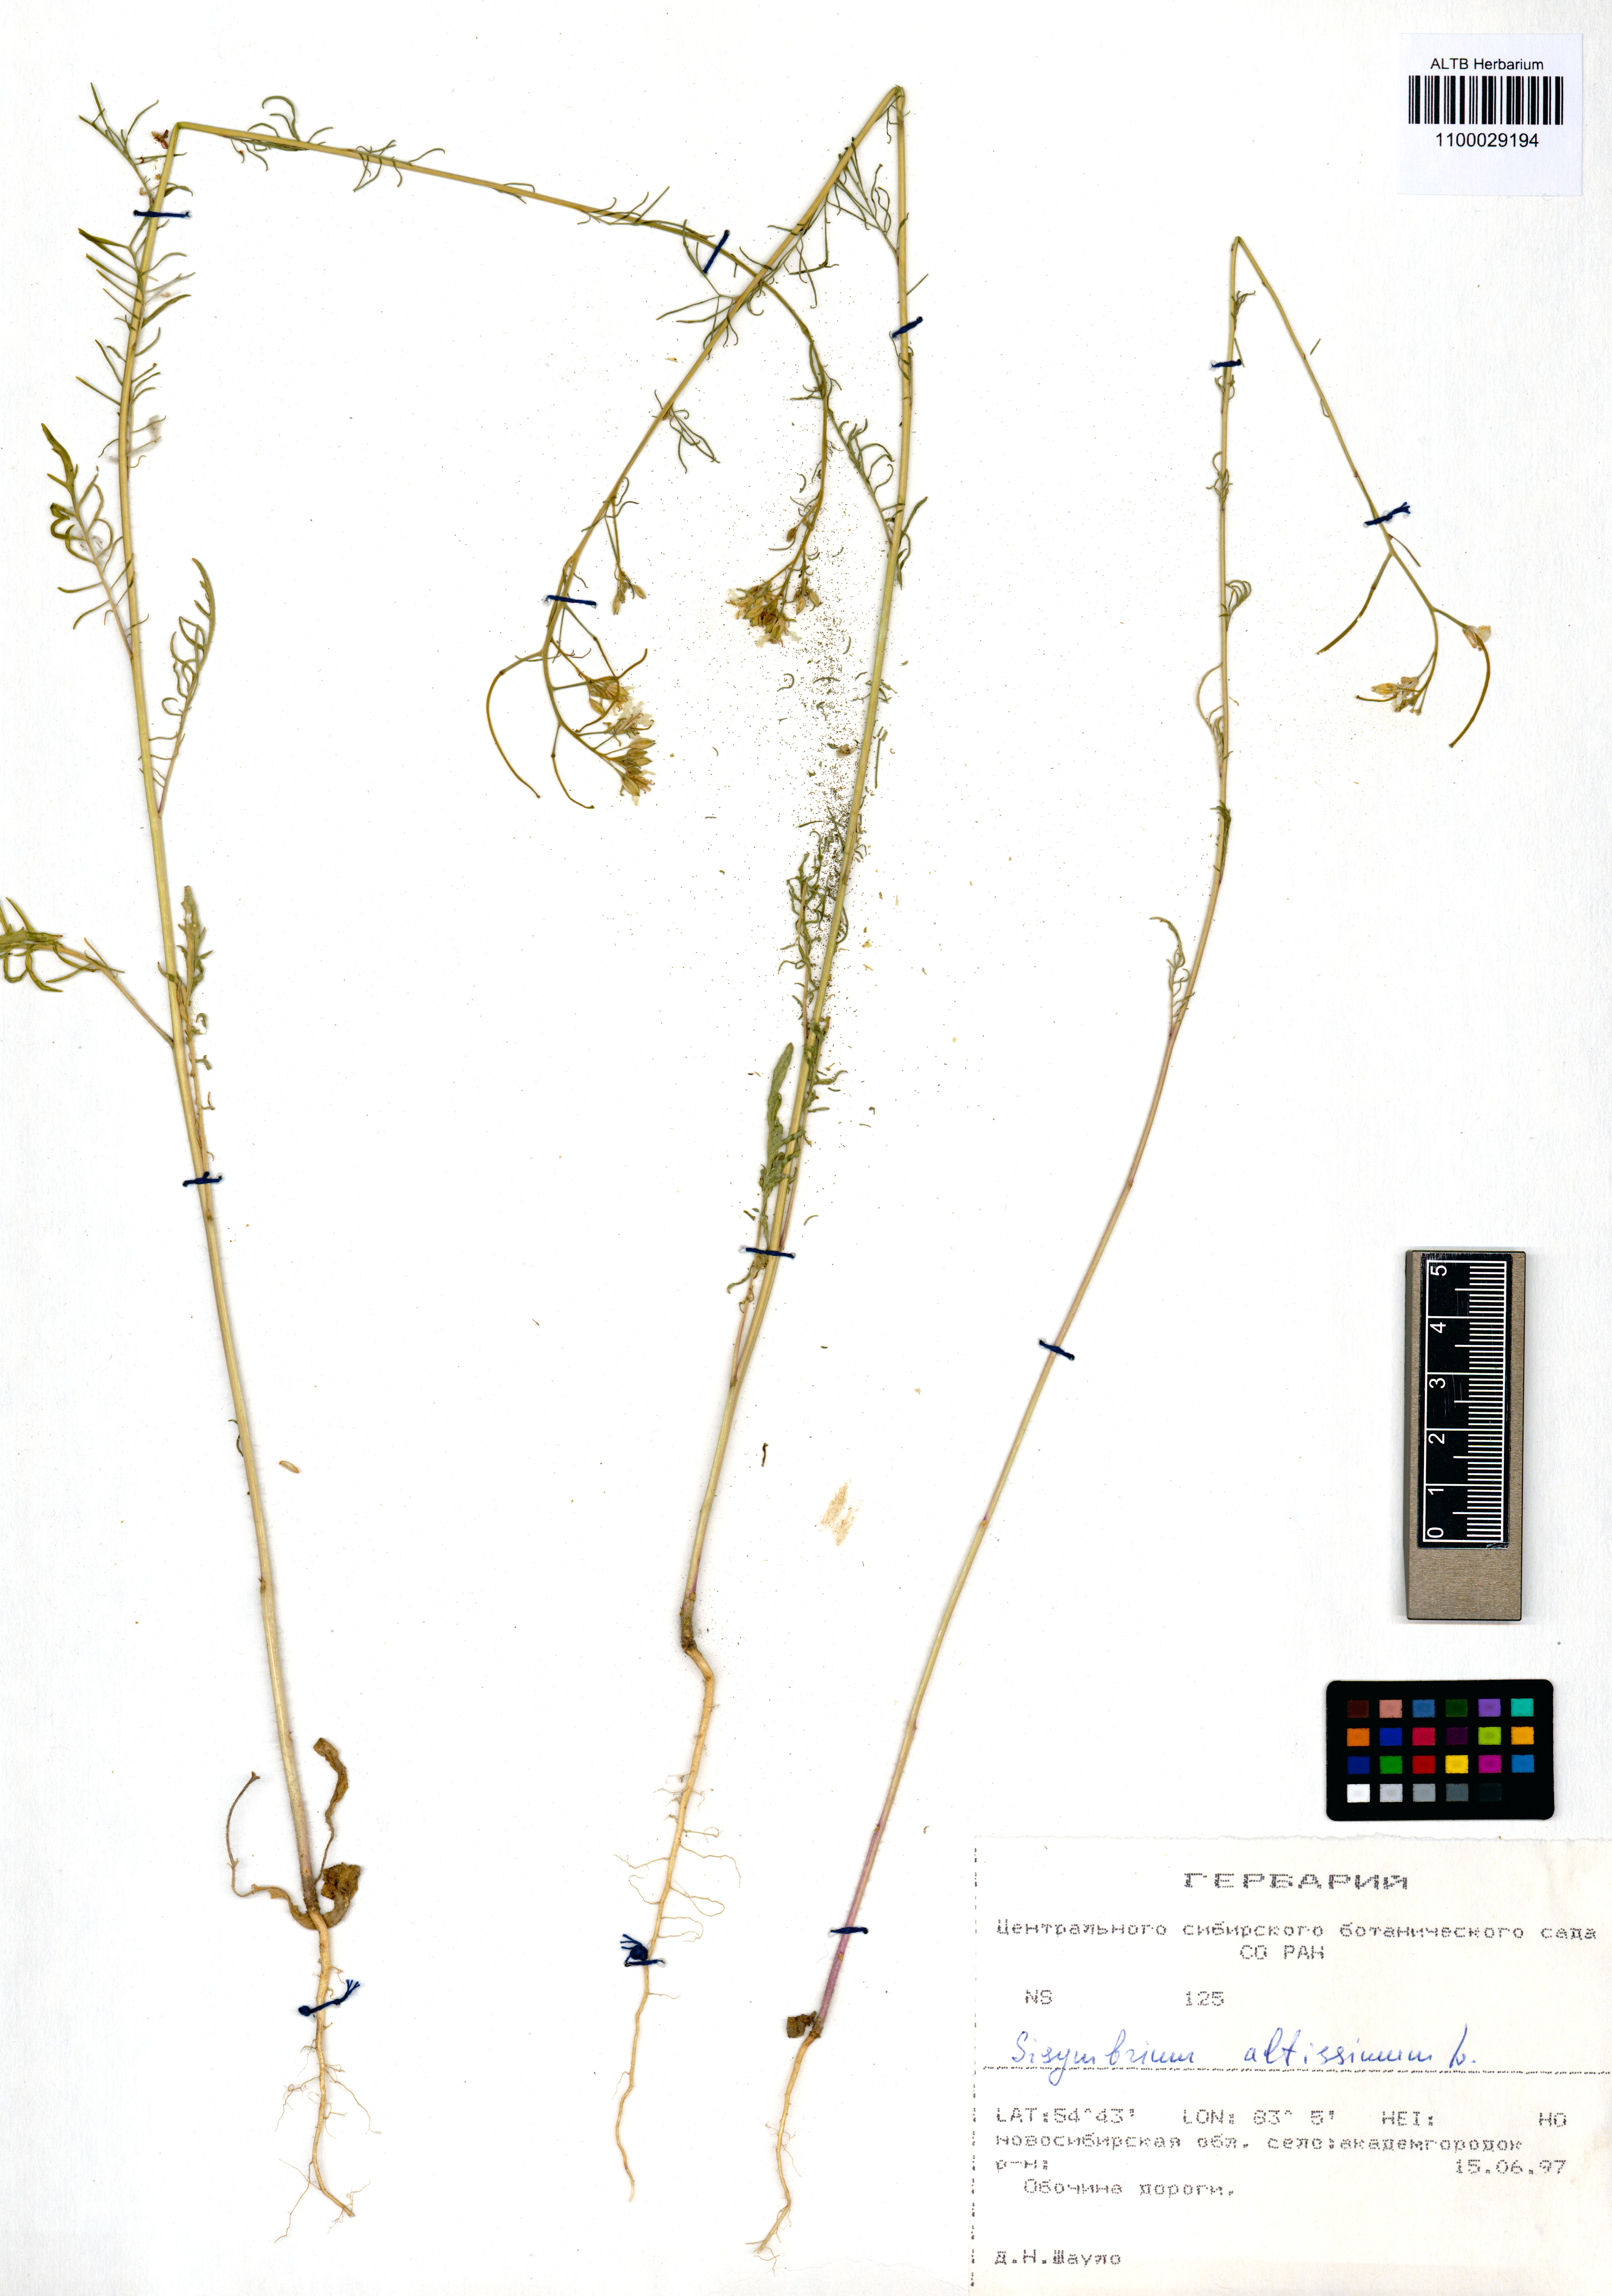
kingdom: Plantae
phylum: Tracheophyta
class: Magnoliopsida
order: Brassicales
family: Brassicaceae
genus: Sisymbrium
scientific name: Sisymbrium altissimum
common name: Tall rocket
